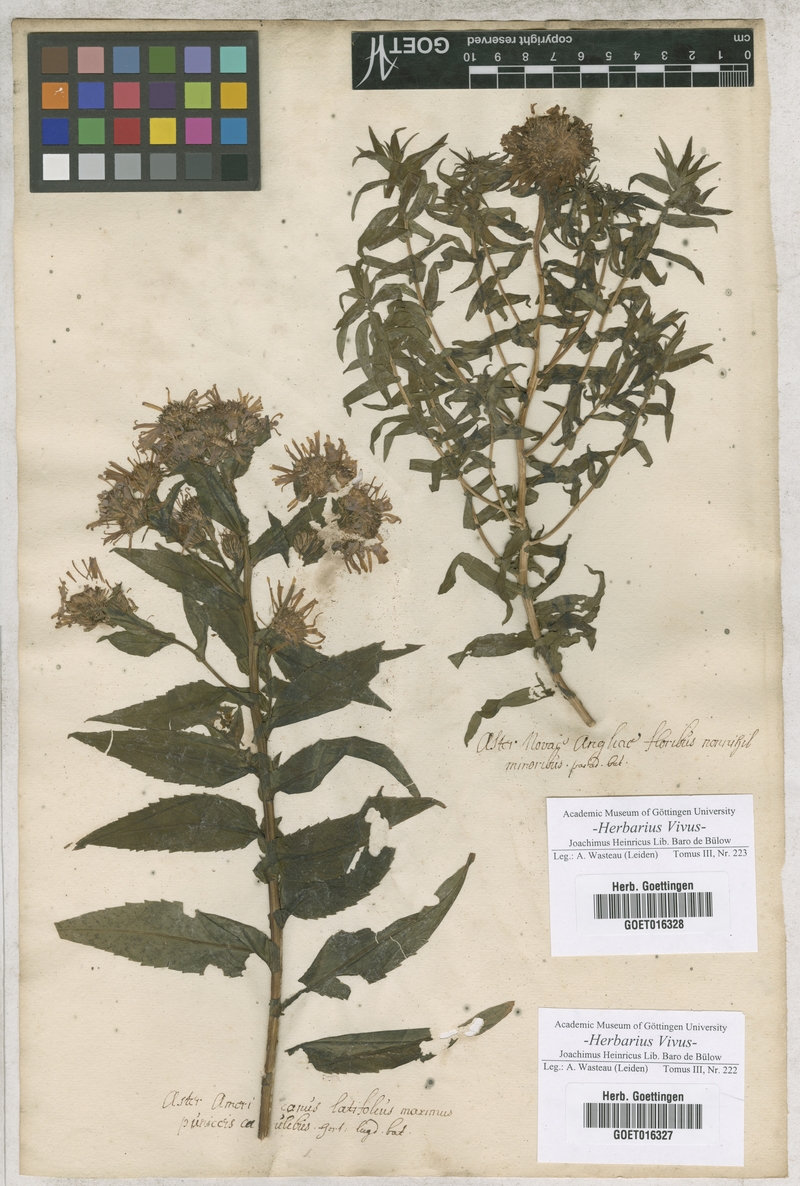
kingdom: Plantae
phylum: Tracheophyta
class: Magnoliopsida
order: Asterales
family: Asteraceae
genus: Symphyotrichum
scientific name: Symphyotrichum puniceum
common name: Bog aster
